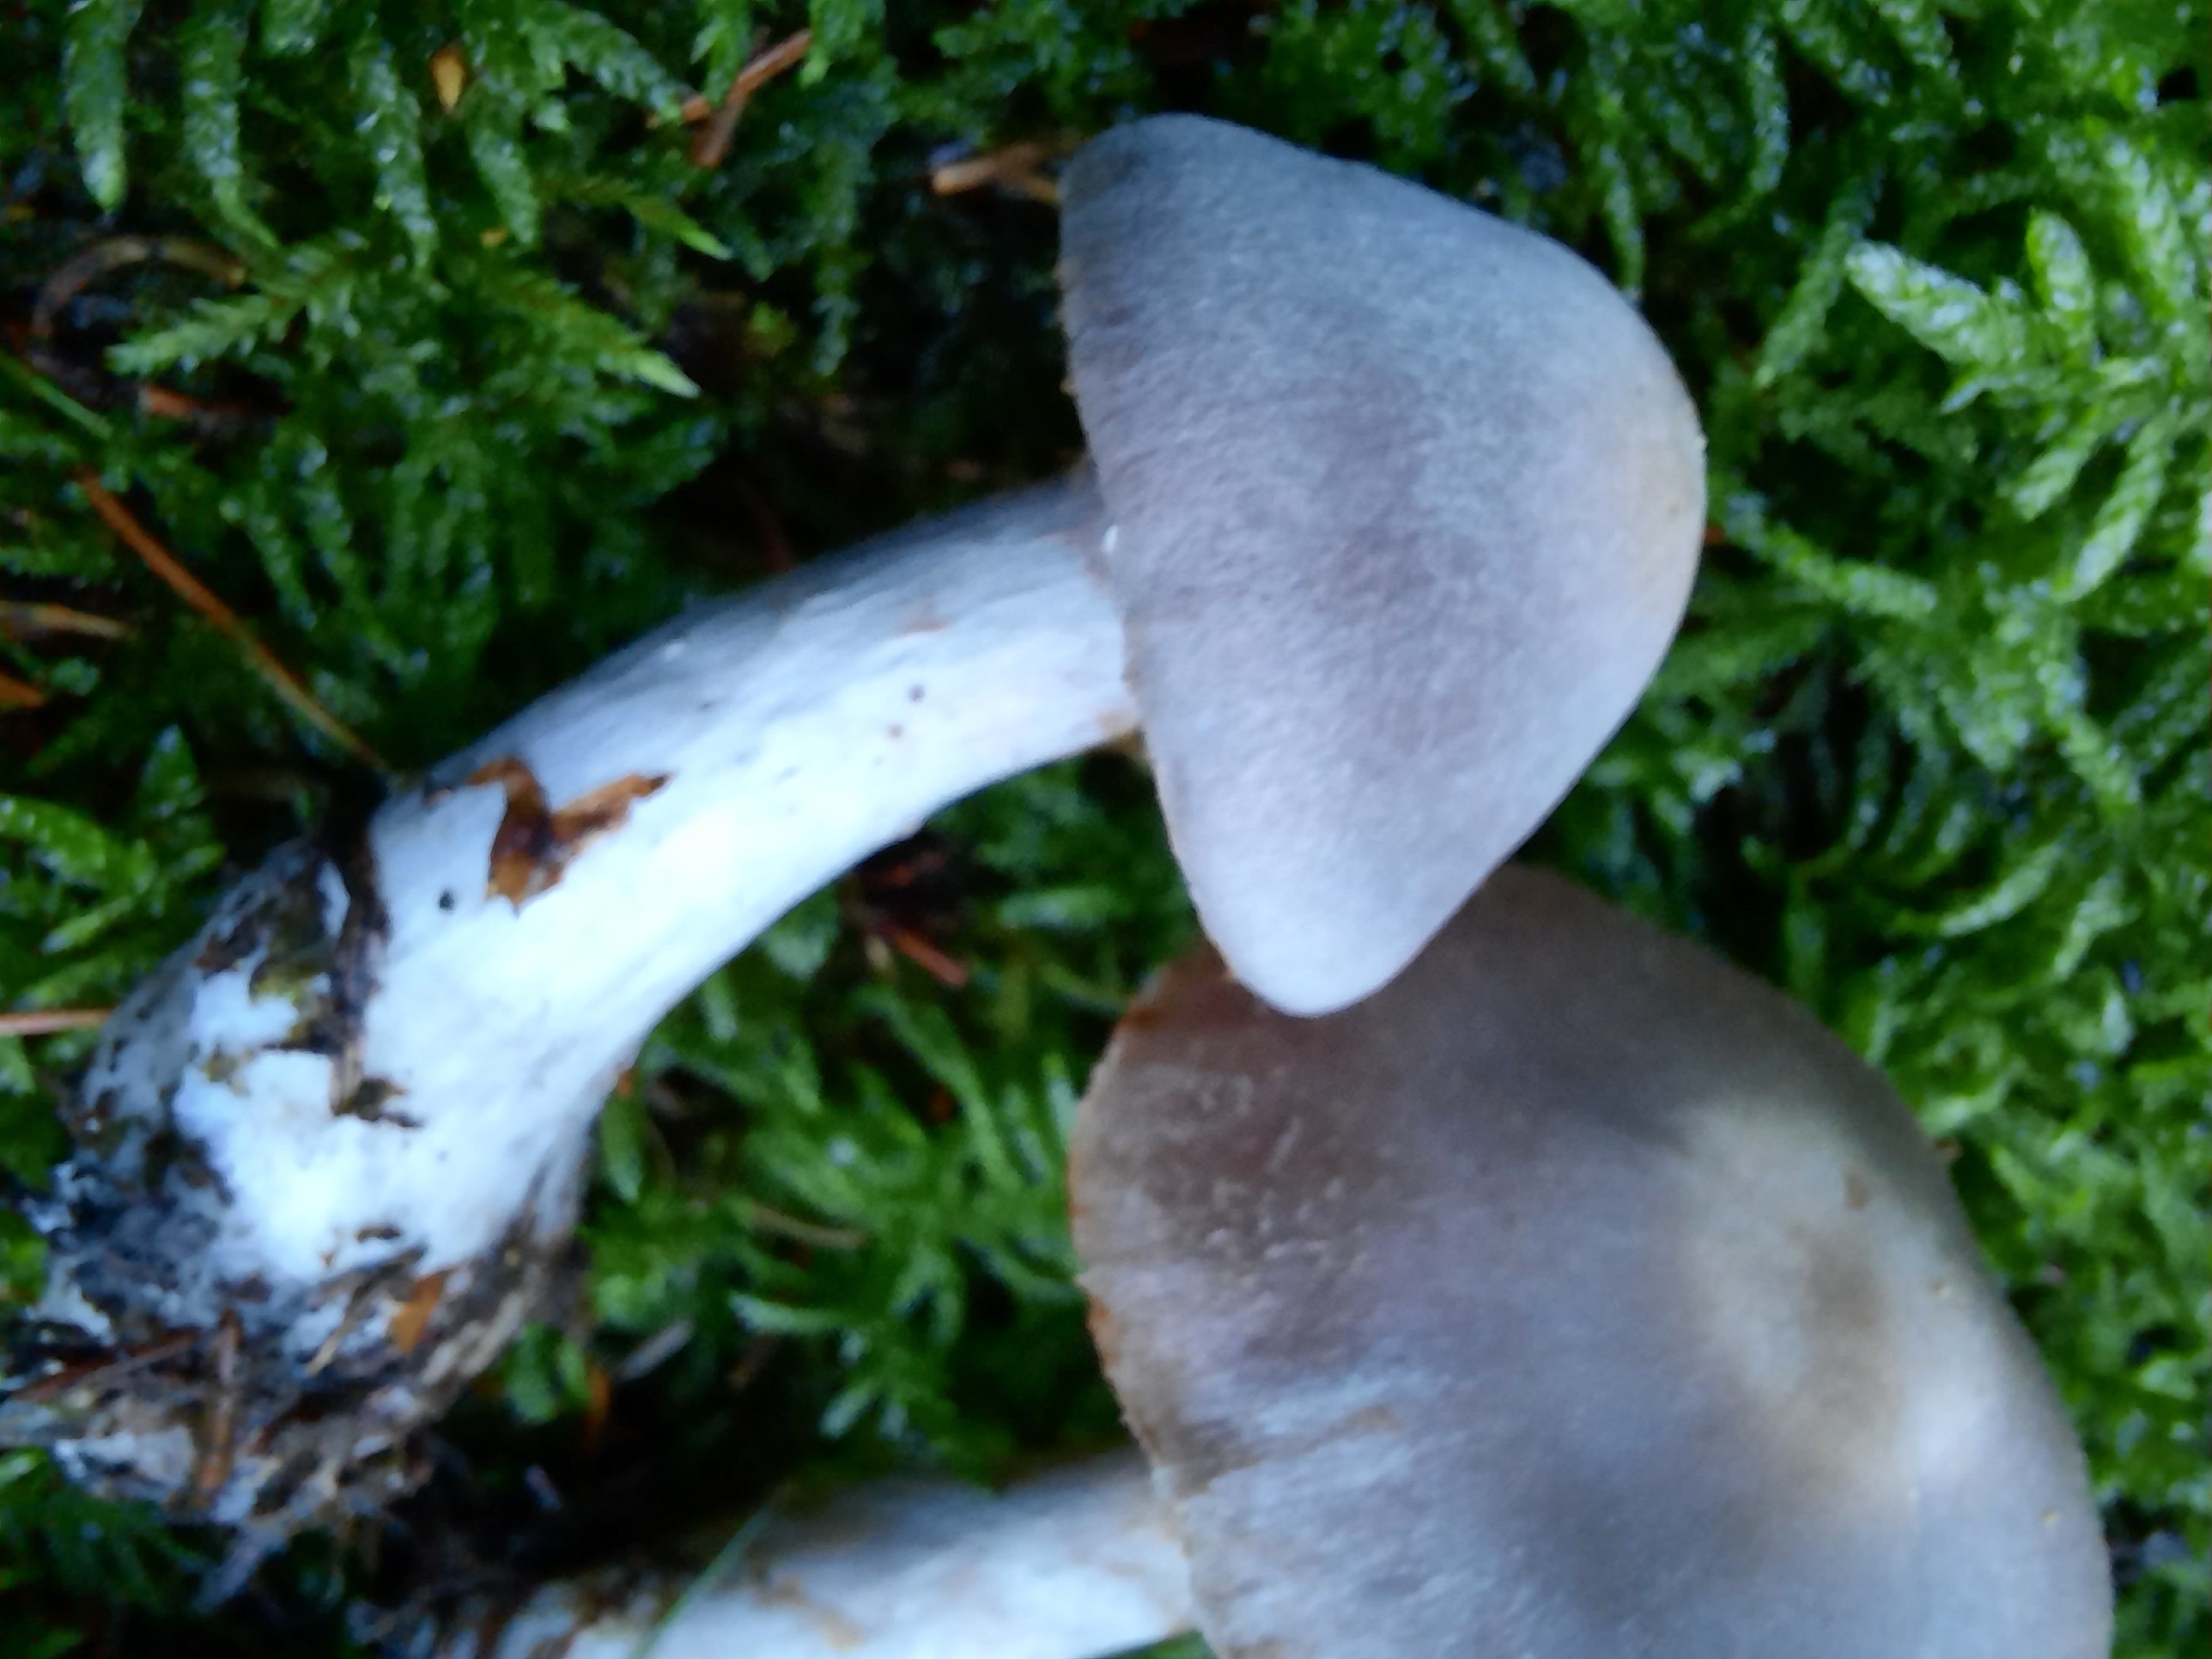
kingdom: Fungi
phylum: Basidiomycota
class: Agaricomycetes
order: Agaricales
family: Cortinariaceae
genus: Cortinarius
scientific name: Cortinarius malachius
